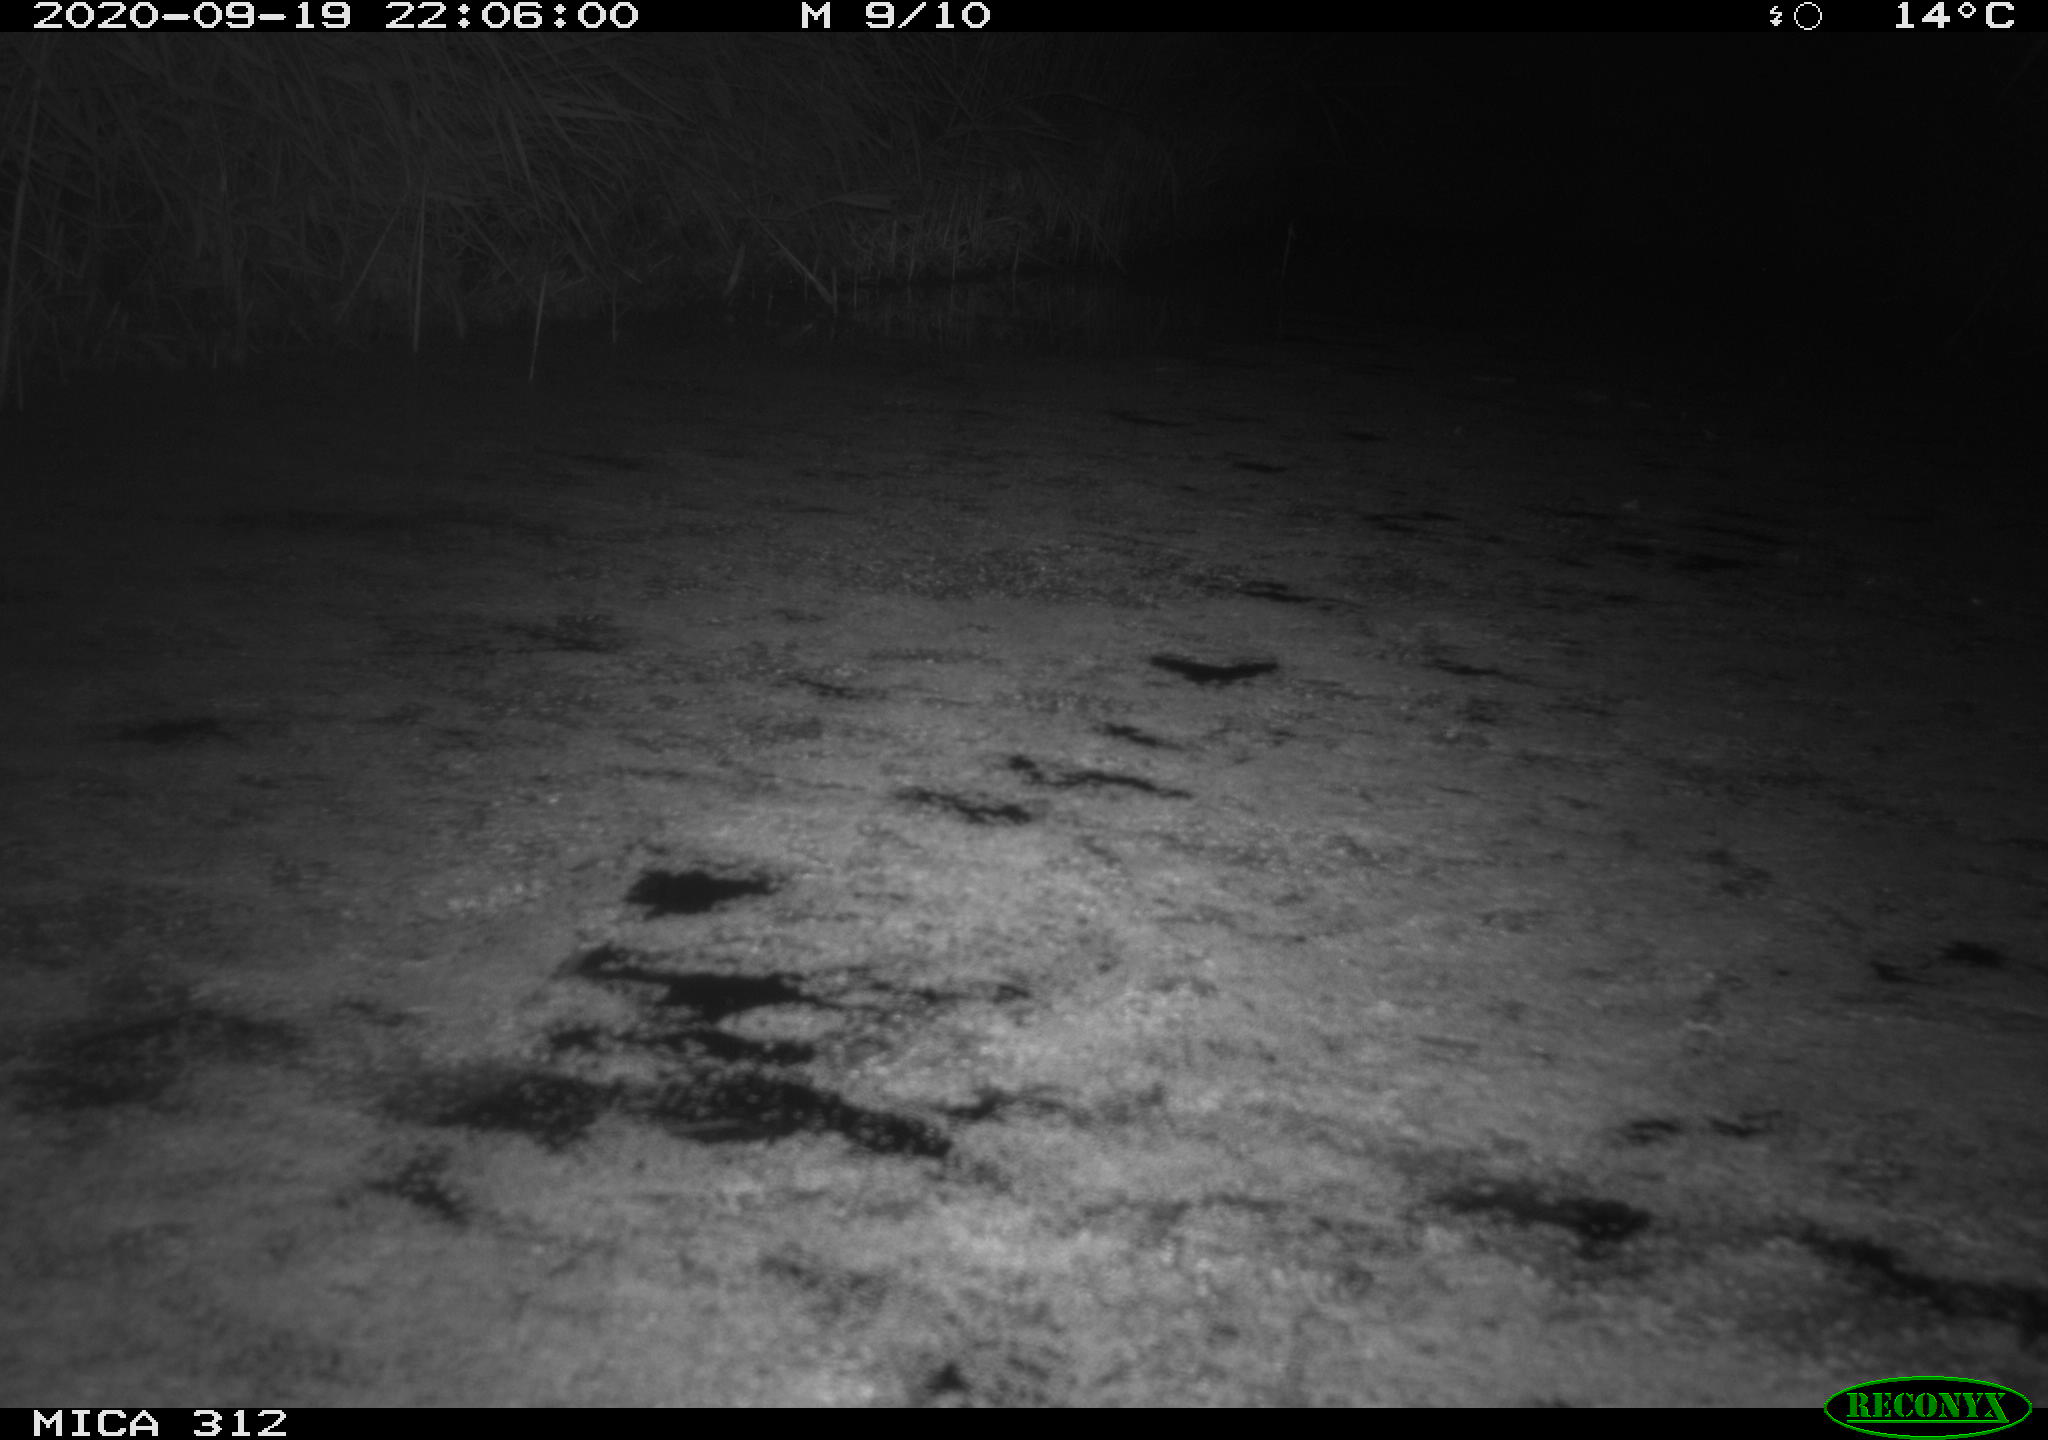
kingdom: Animalia
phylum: Chordata
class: Mammalia
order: Rodentia
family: Muridae
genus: Rattus
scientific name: Rattus norvegicus
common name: Brown rat
